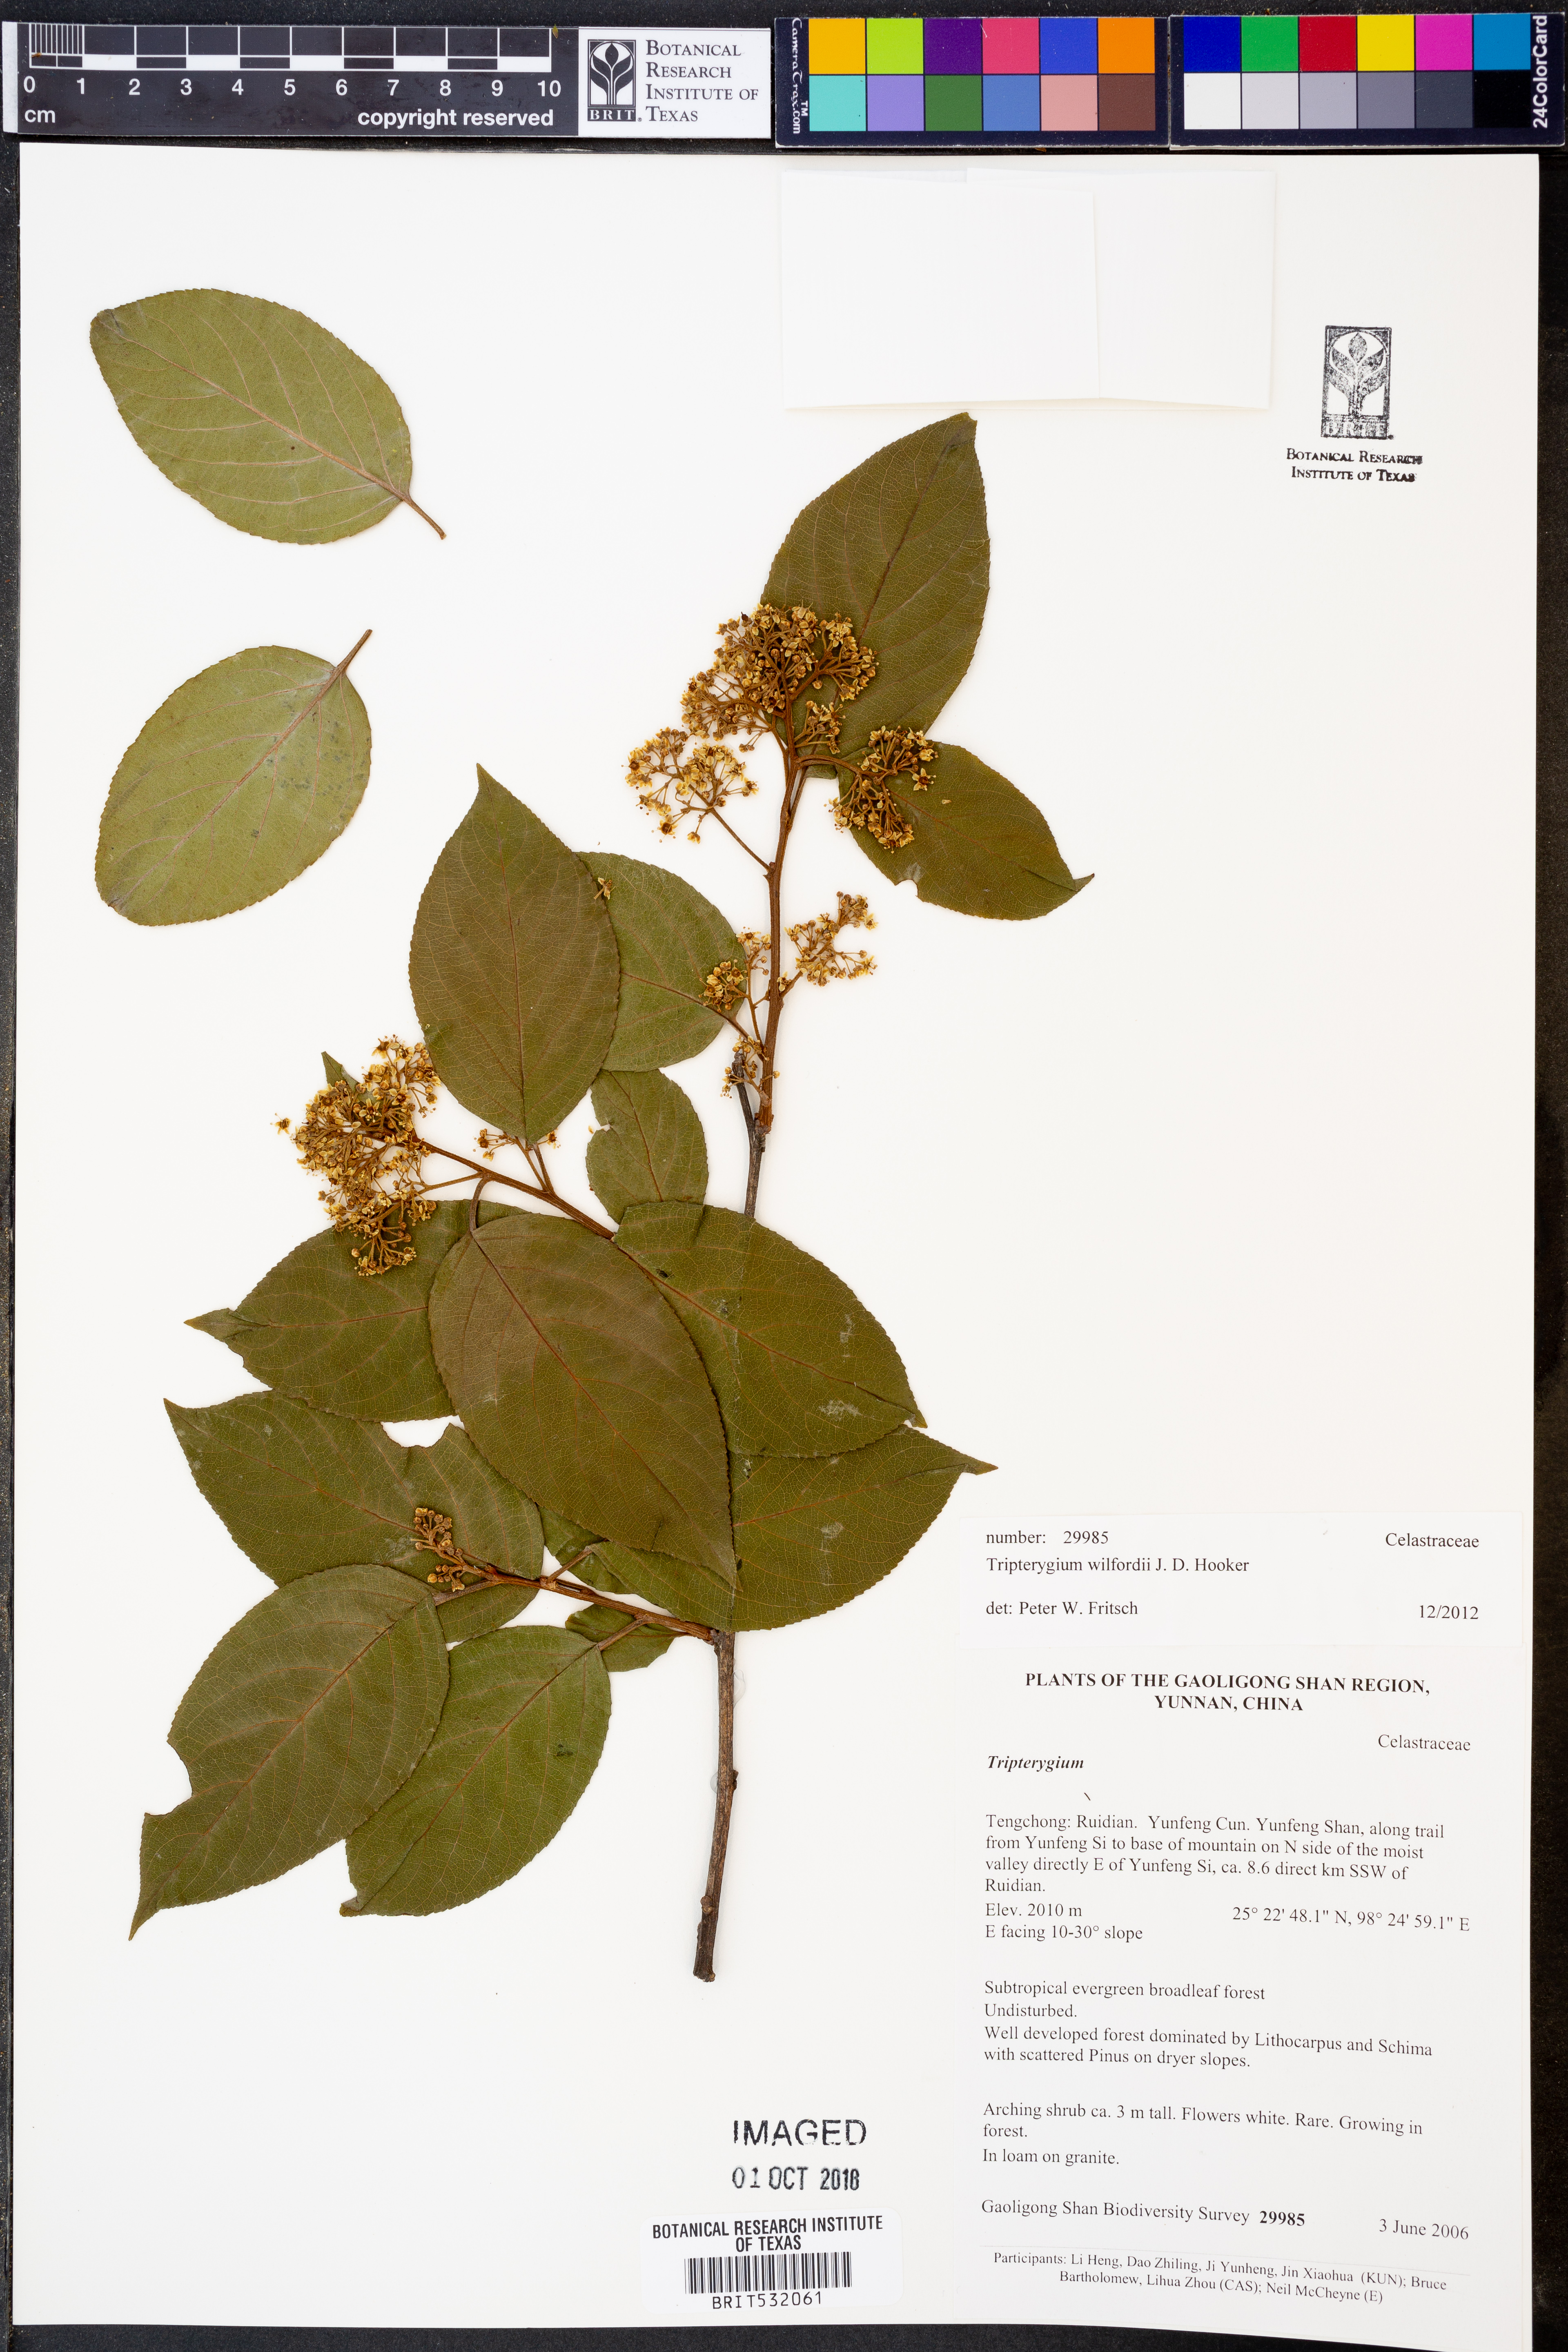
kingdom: Plantae
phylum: Tracheophyta
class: Magnoliopsida
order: Celastrales
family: Celastraceae
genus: Tripterygium
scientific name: Tripterygium wilfordii
